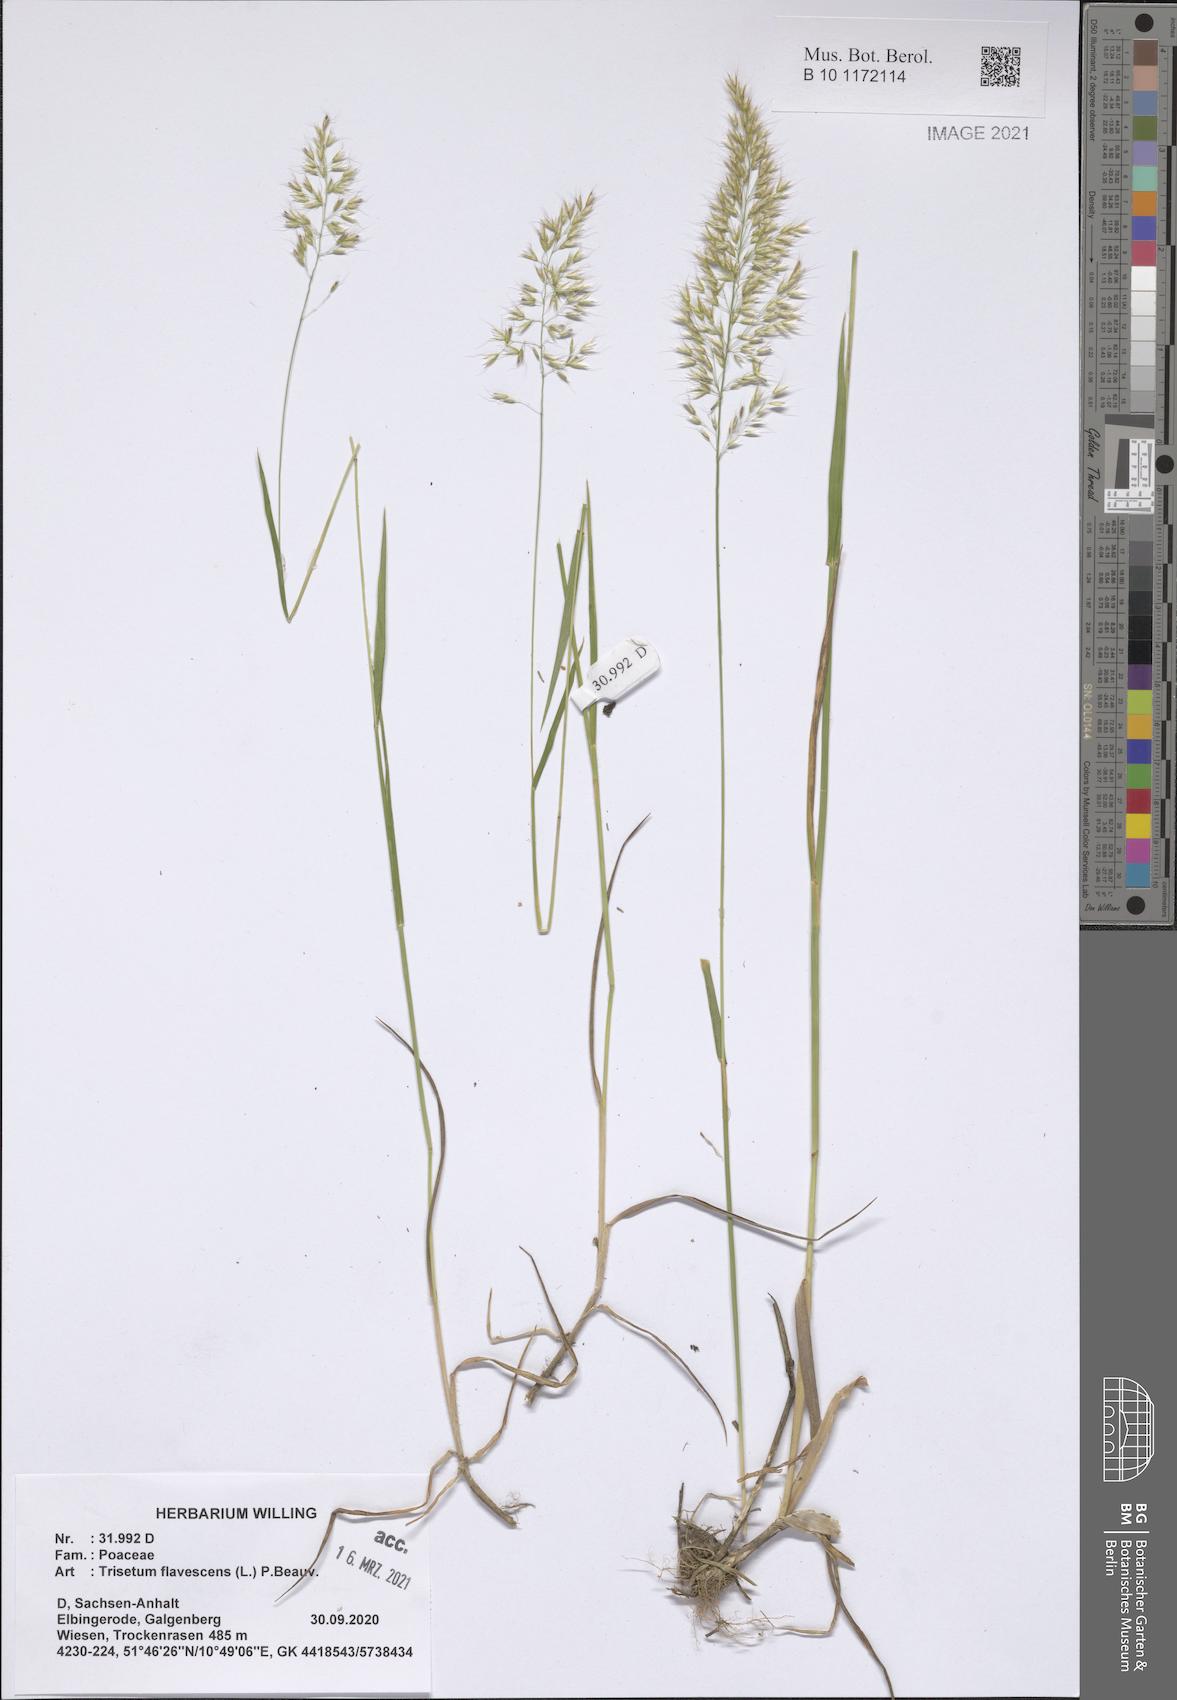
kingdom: Plantae
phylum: Tracheophyta
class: Liliopsida
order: Poales
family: Poaceae
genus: Trisetum
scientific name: Trisetum flavescens
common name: Yellow oat-grass
